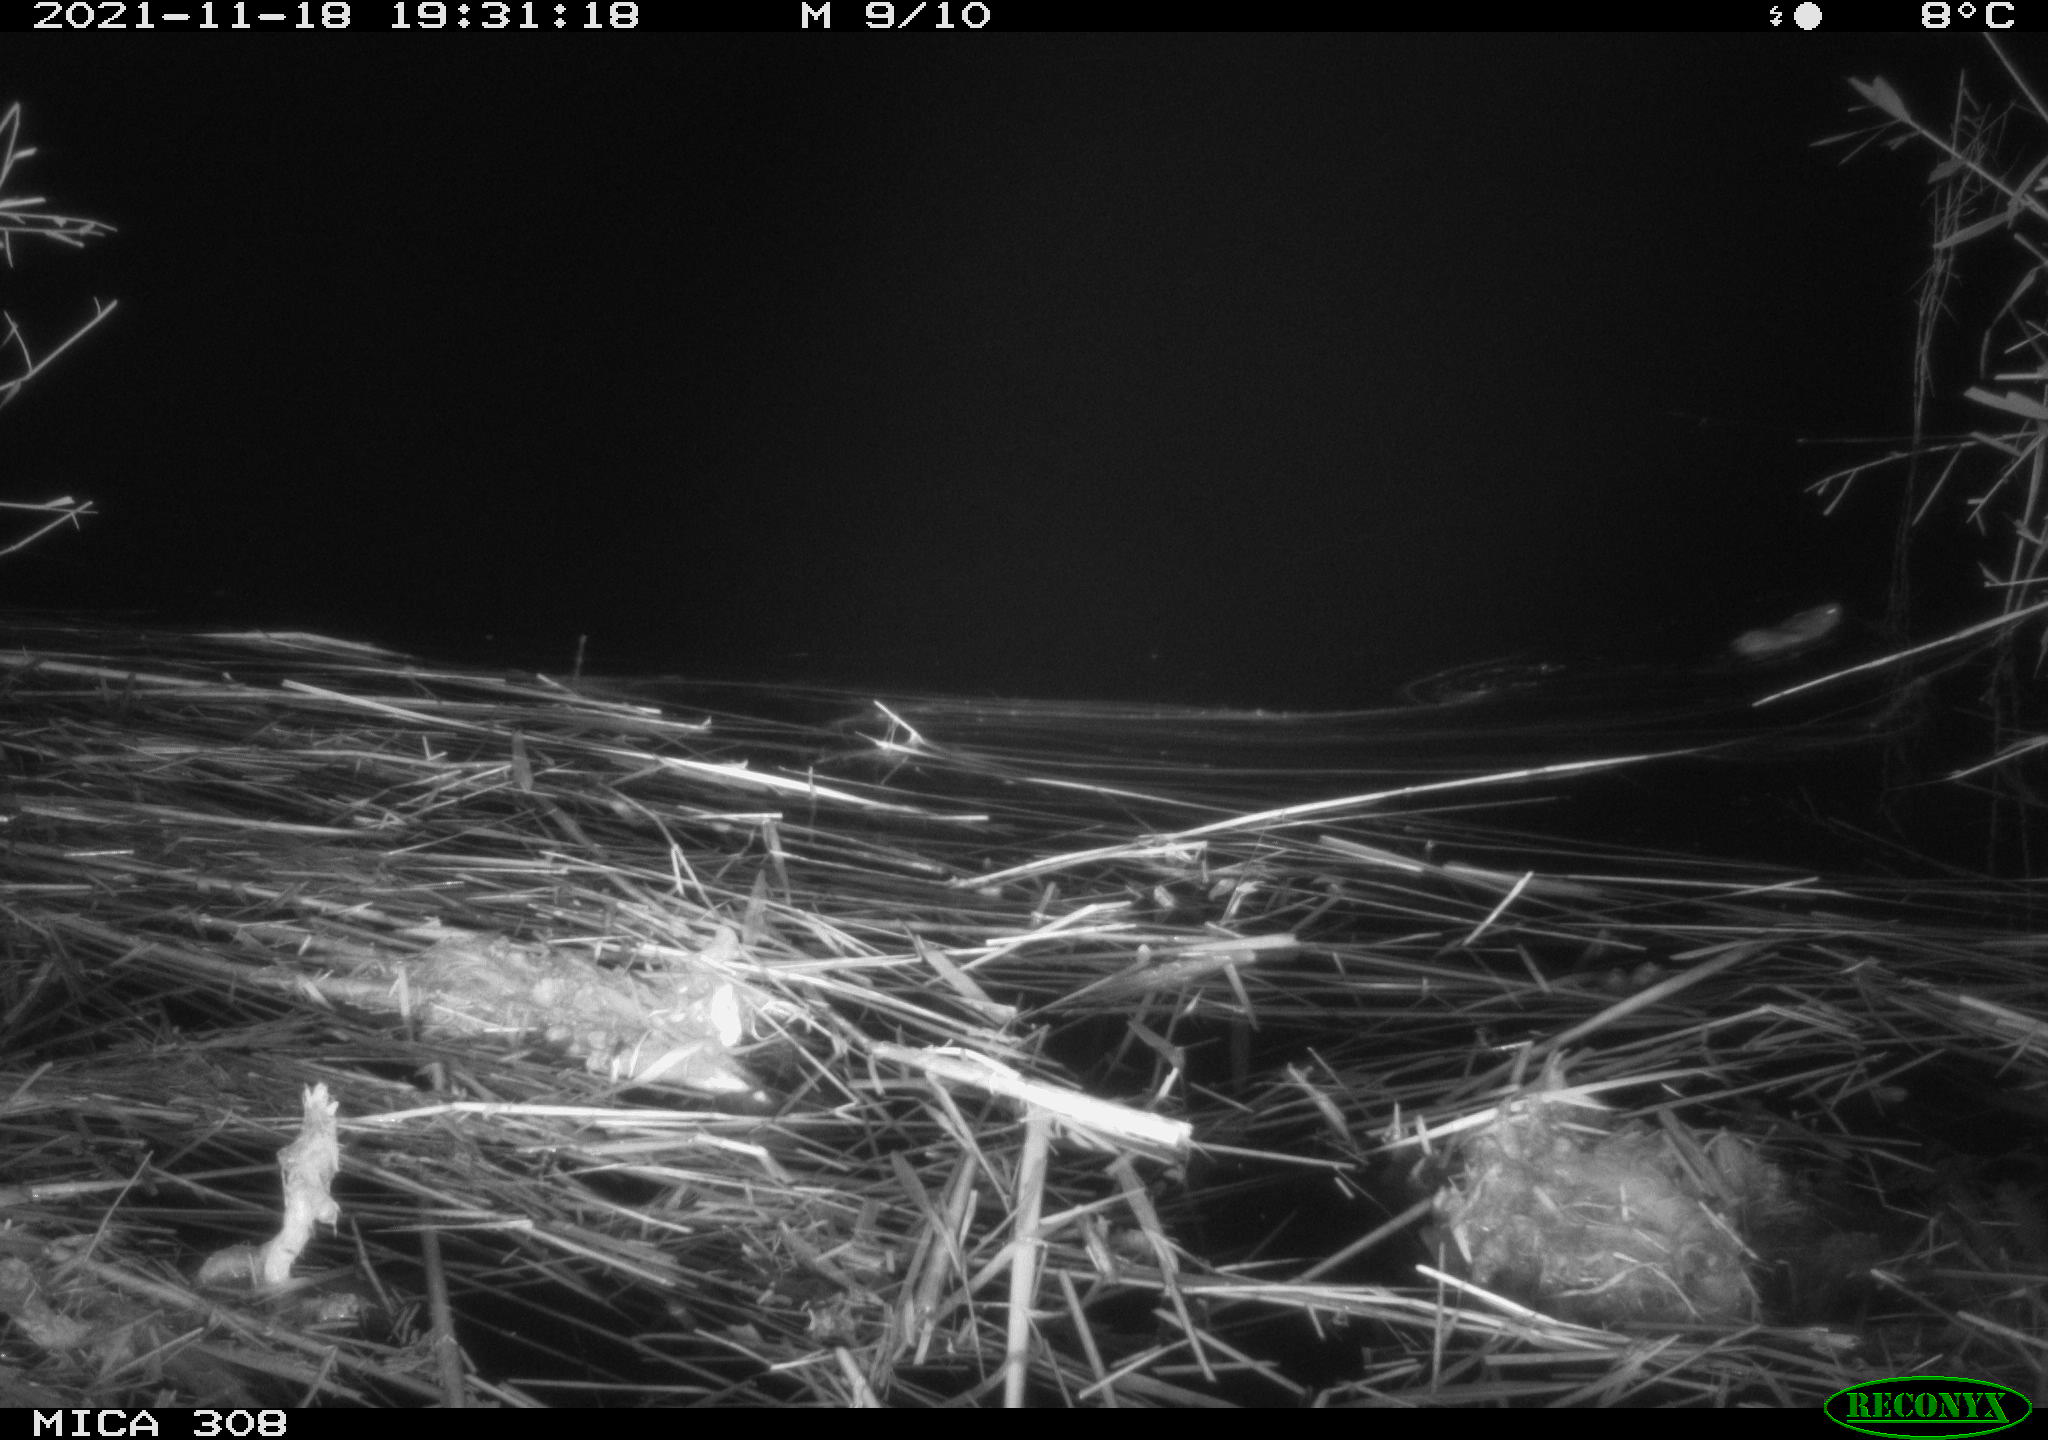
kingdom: Animalia
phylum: Chordata
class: Mammalia
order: Rodentia
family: Muridae
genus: Rattus
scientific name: Rattus norvegicus
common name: Brown rat
